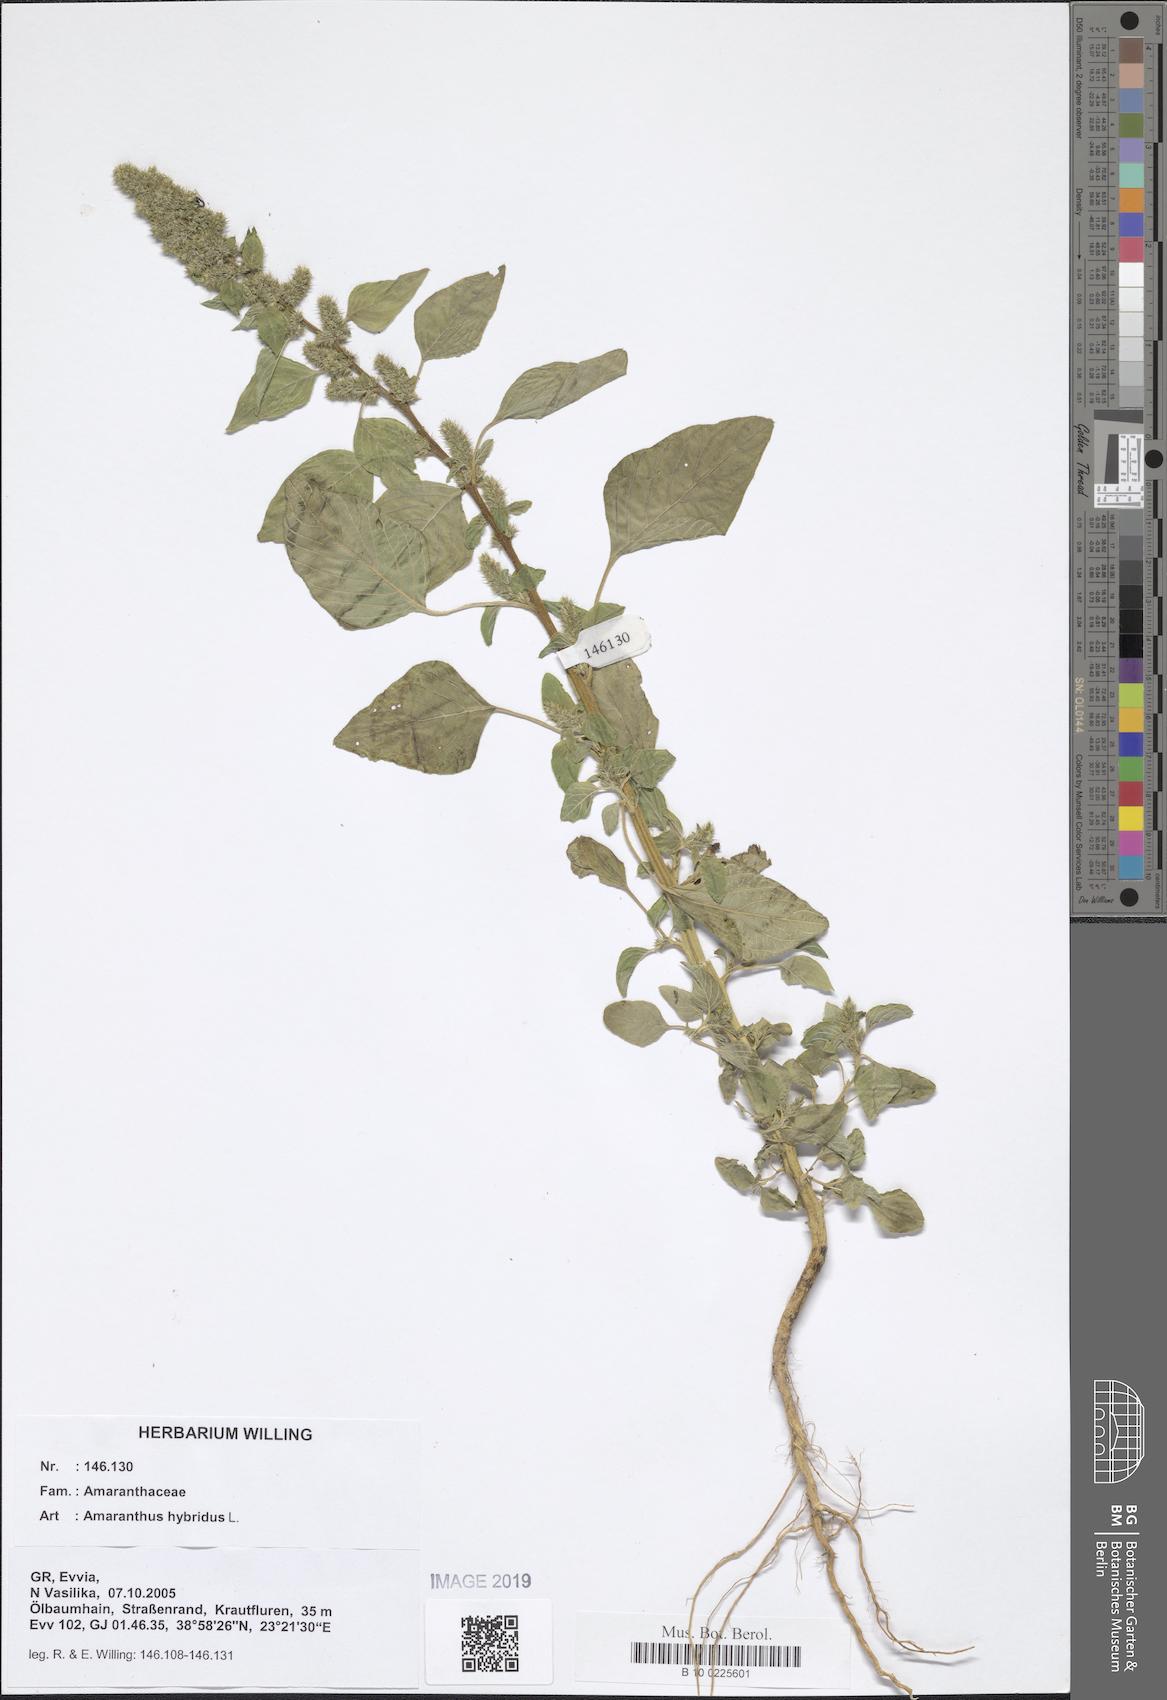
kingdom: Plantae
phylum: Tracheophyta
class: Magnoliopsida
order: Caryophyllales
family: Amaranthaceae
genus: Amaranthus
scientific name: Amaranthus hybridus
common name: Green amaranth
